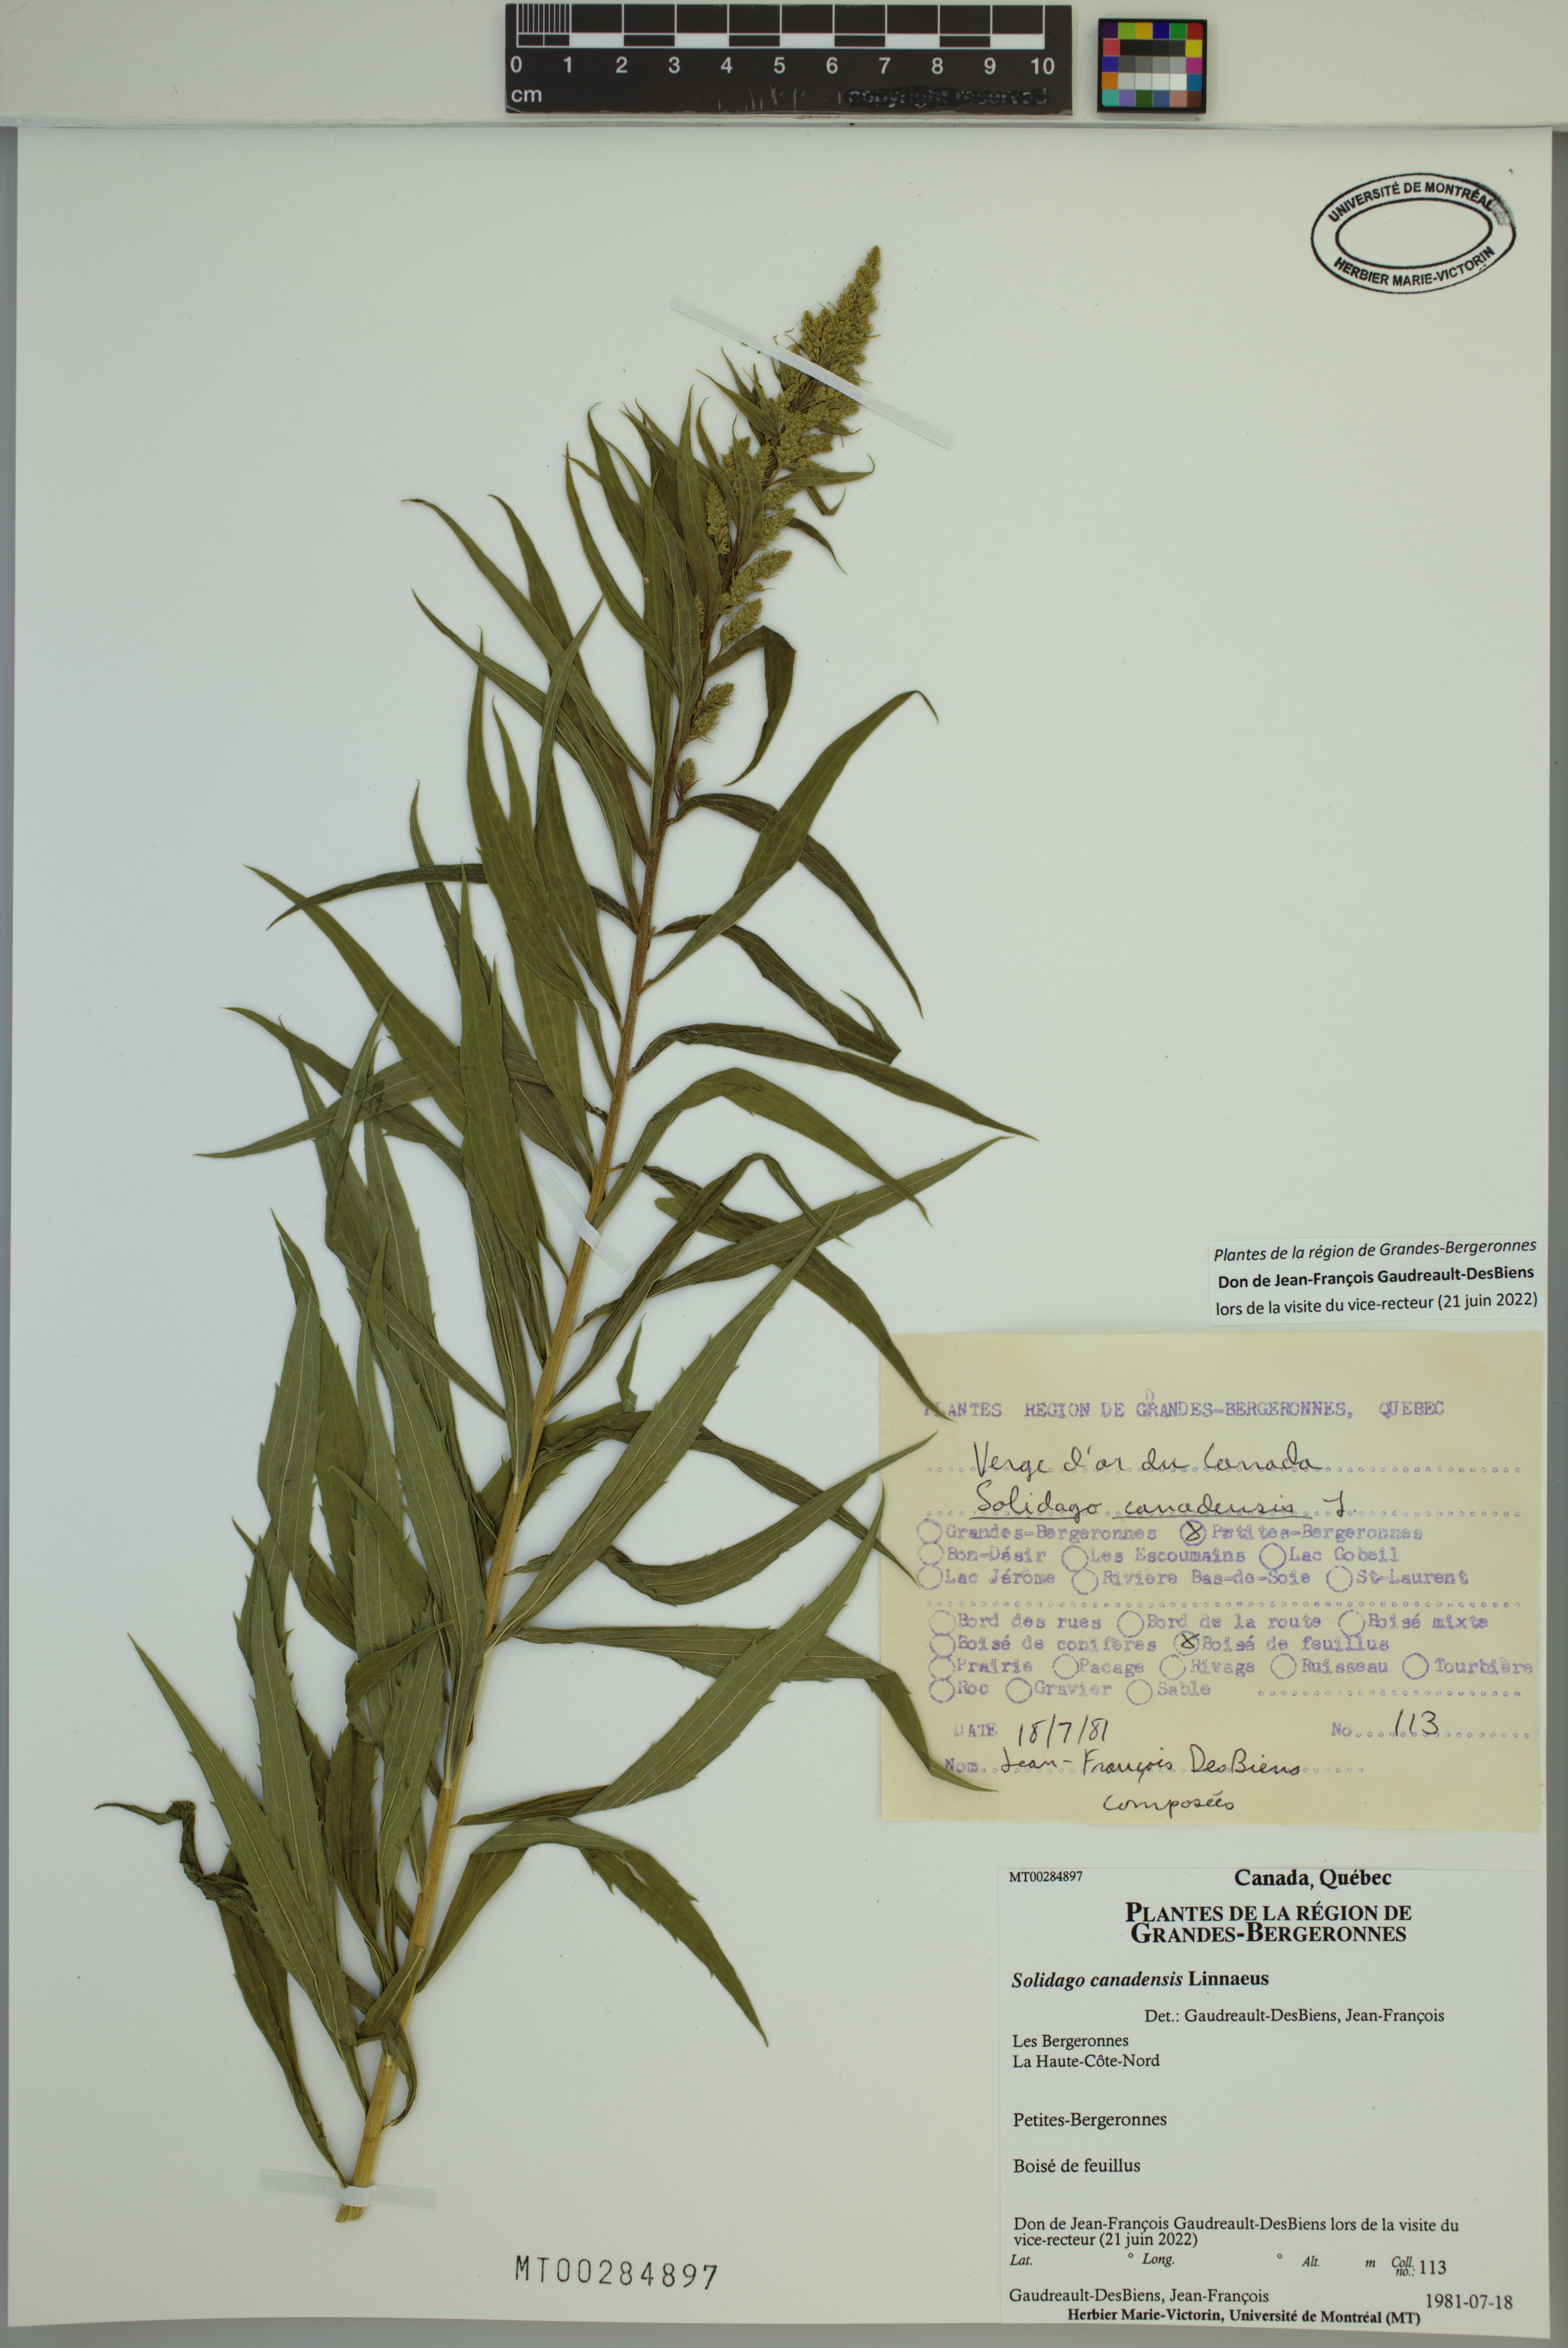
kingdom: Plantae
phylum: Tracheophyta
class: Magnoliopsida
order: Asterales
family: Asteraceae
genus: Solidago
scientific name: Solidago canadensis
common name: Canada goldenrod
